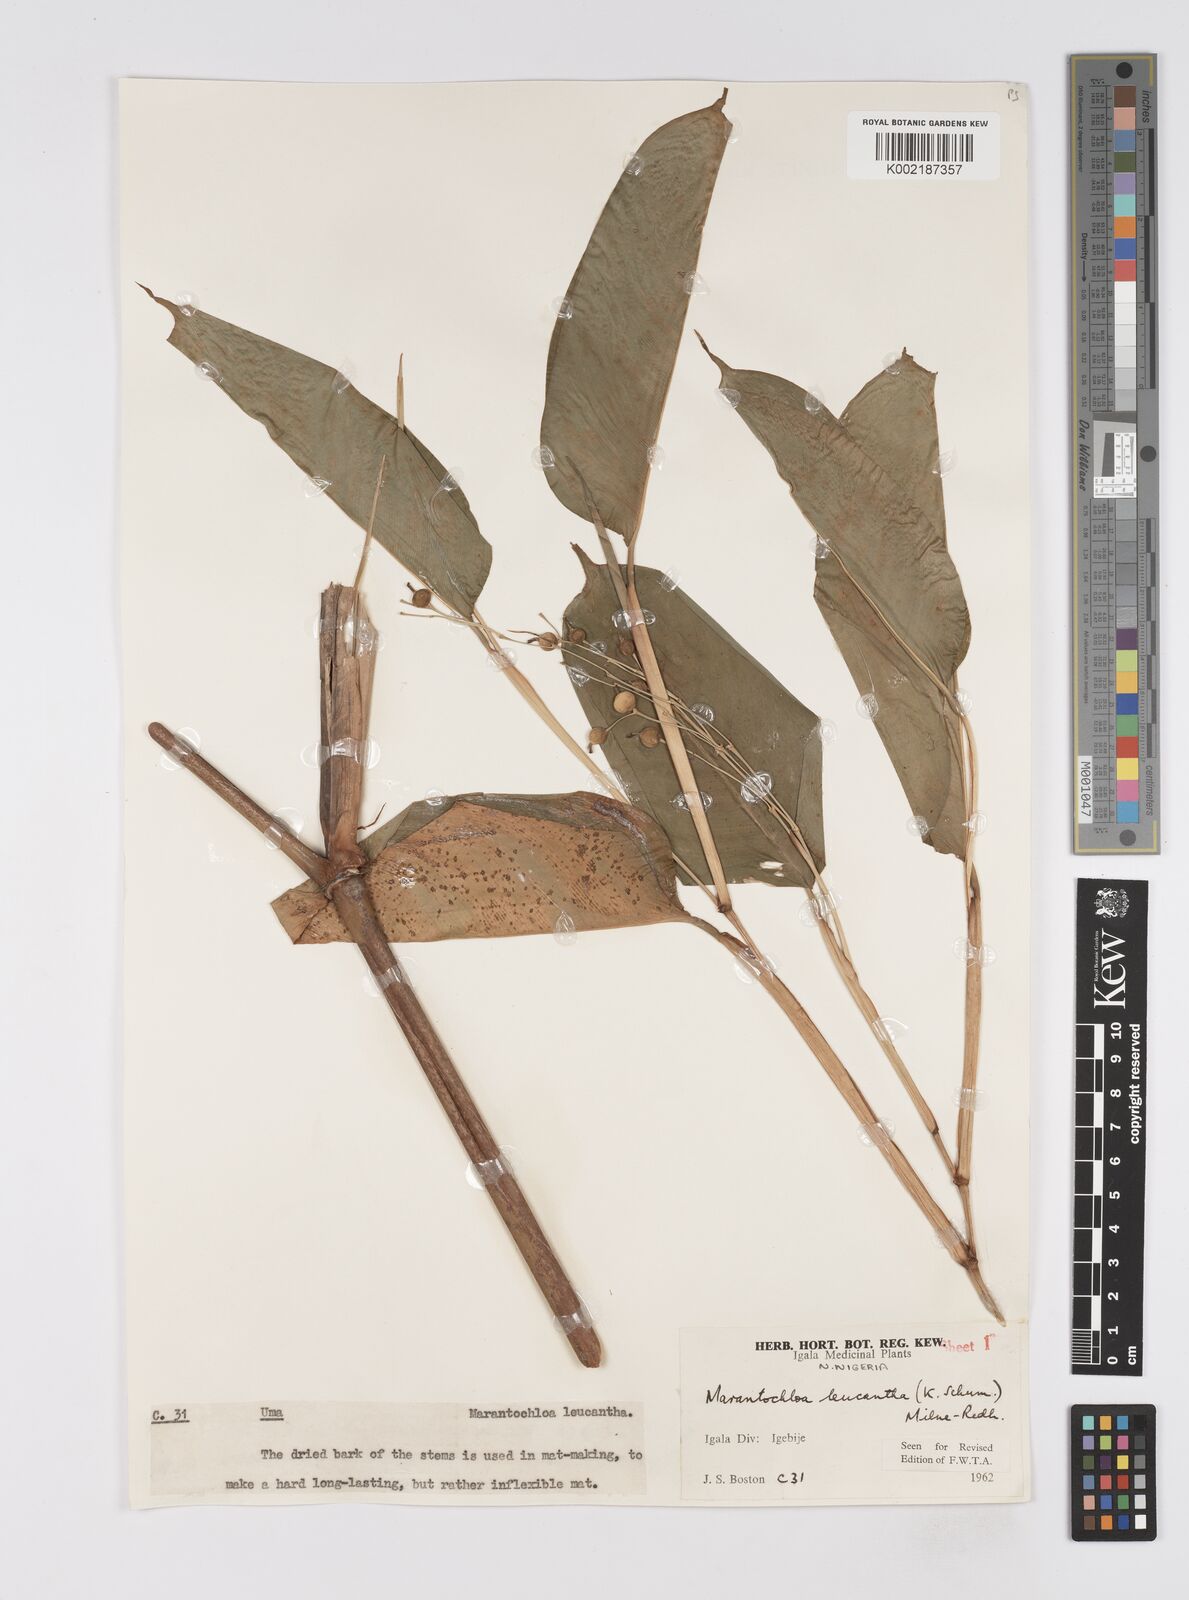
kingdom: Plantae
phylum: Tracheophyta
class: Liliopsida
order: Zingiberales
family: Marantaceae
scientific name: Marantaceae
